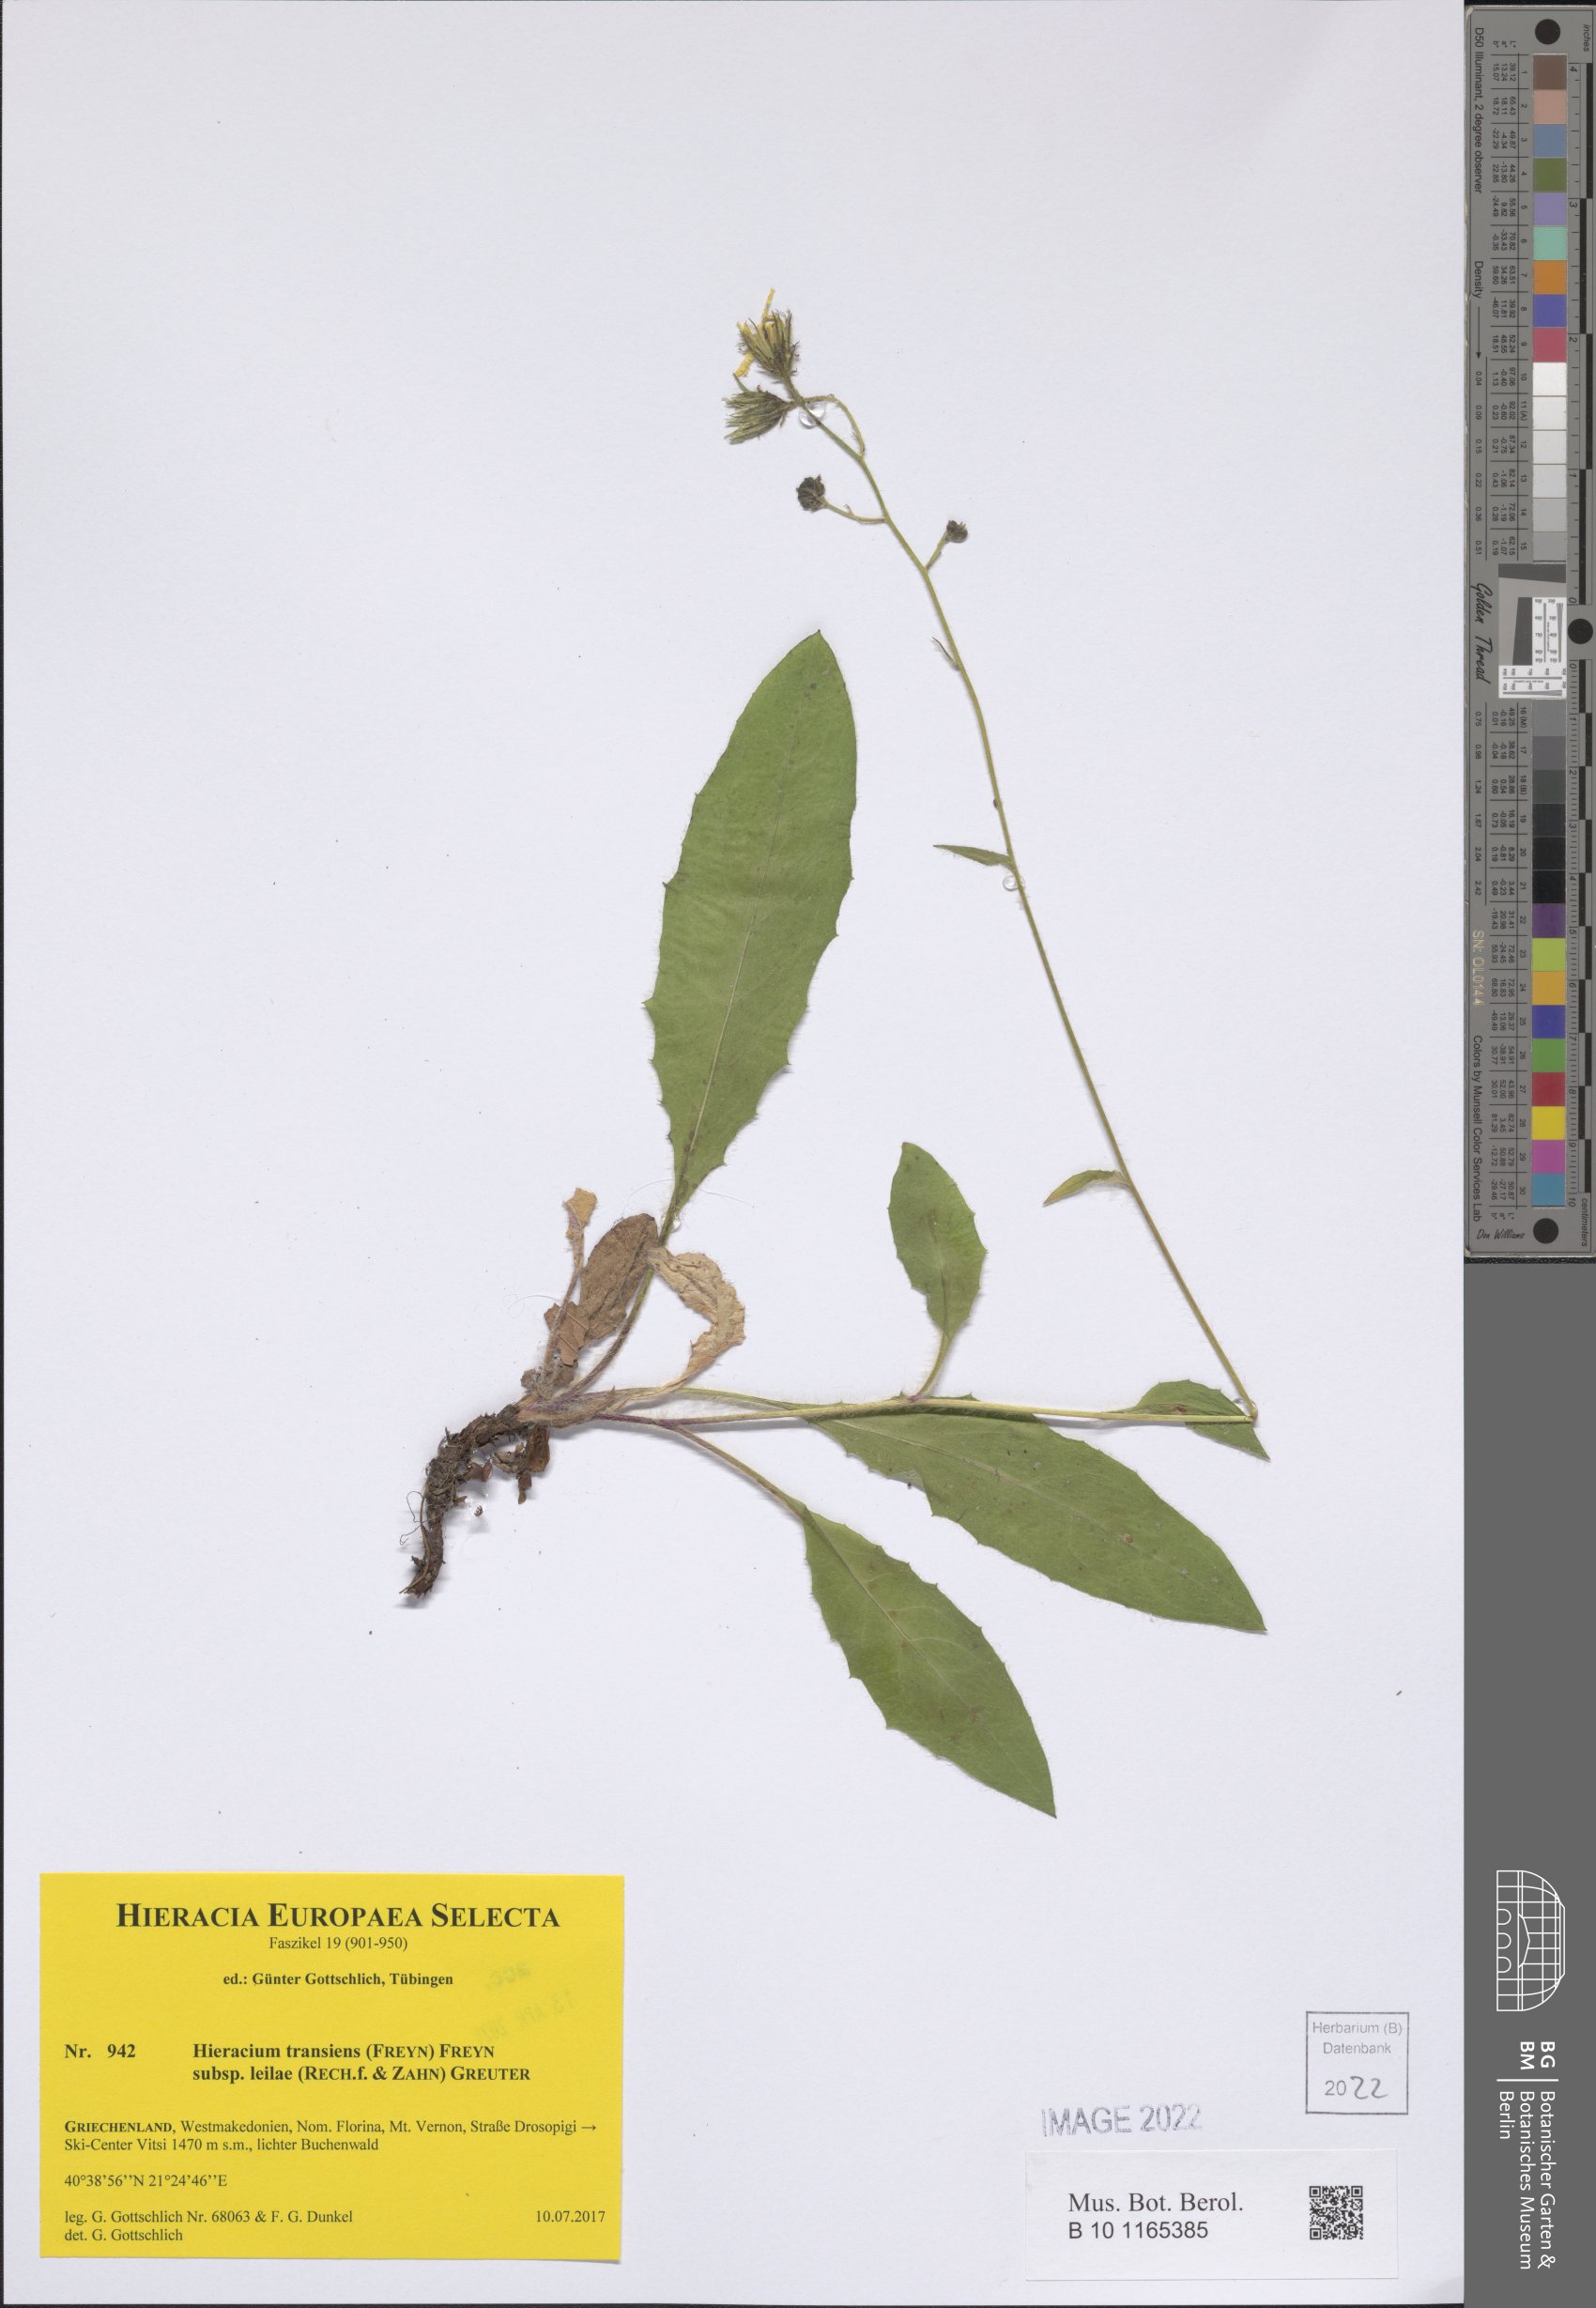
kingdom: Plantae
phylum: Tracheophyta
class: Magnoliopsida
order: Asterales
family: Asteraceae
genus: Hieracium
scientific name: Hieracium transiens
